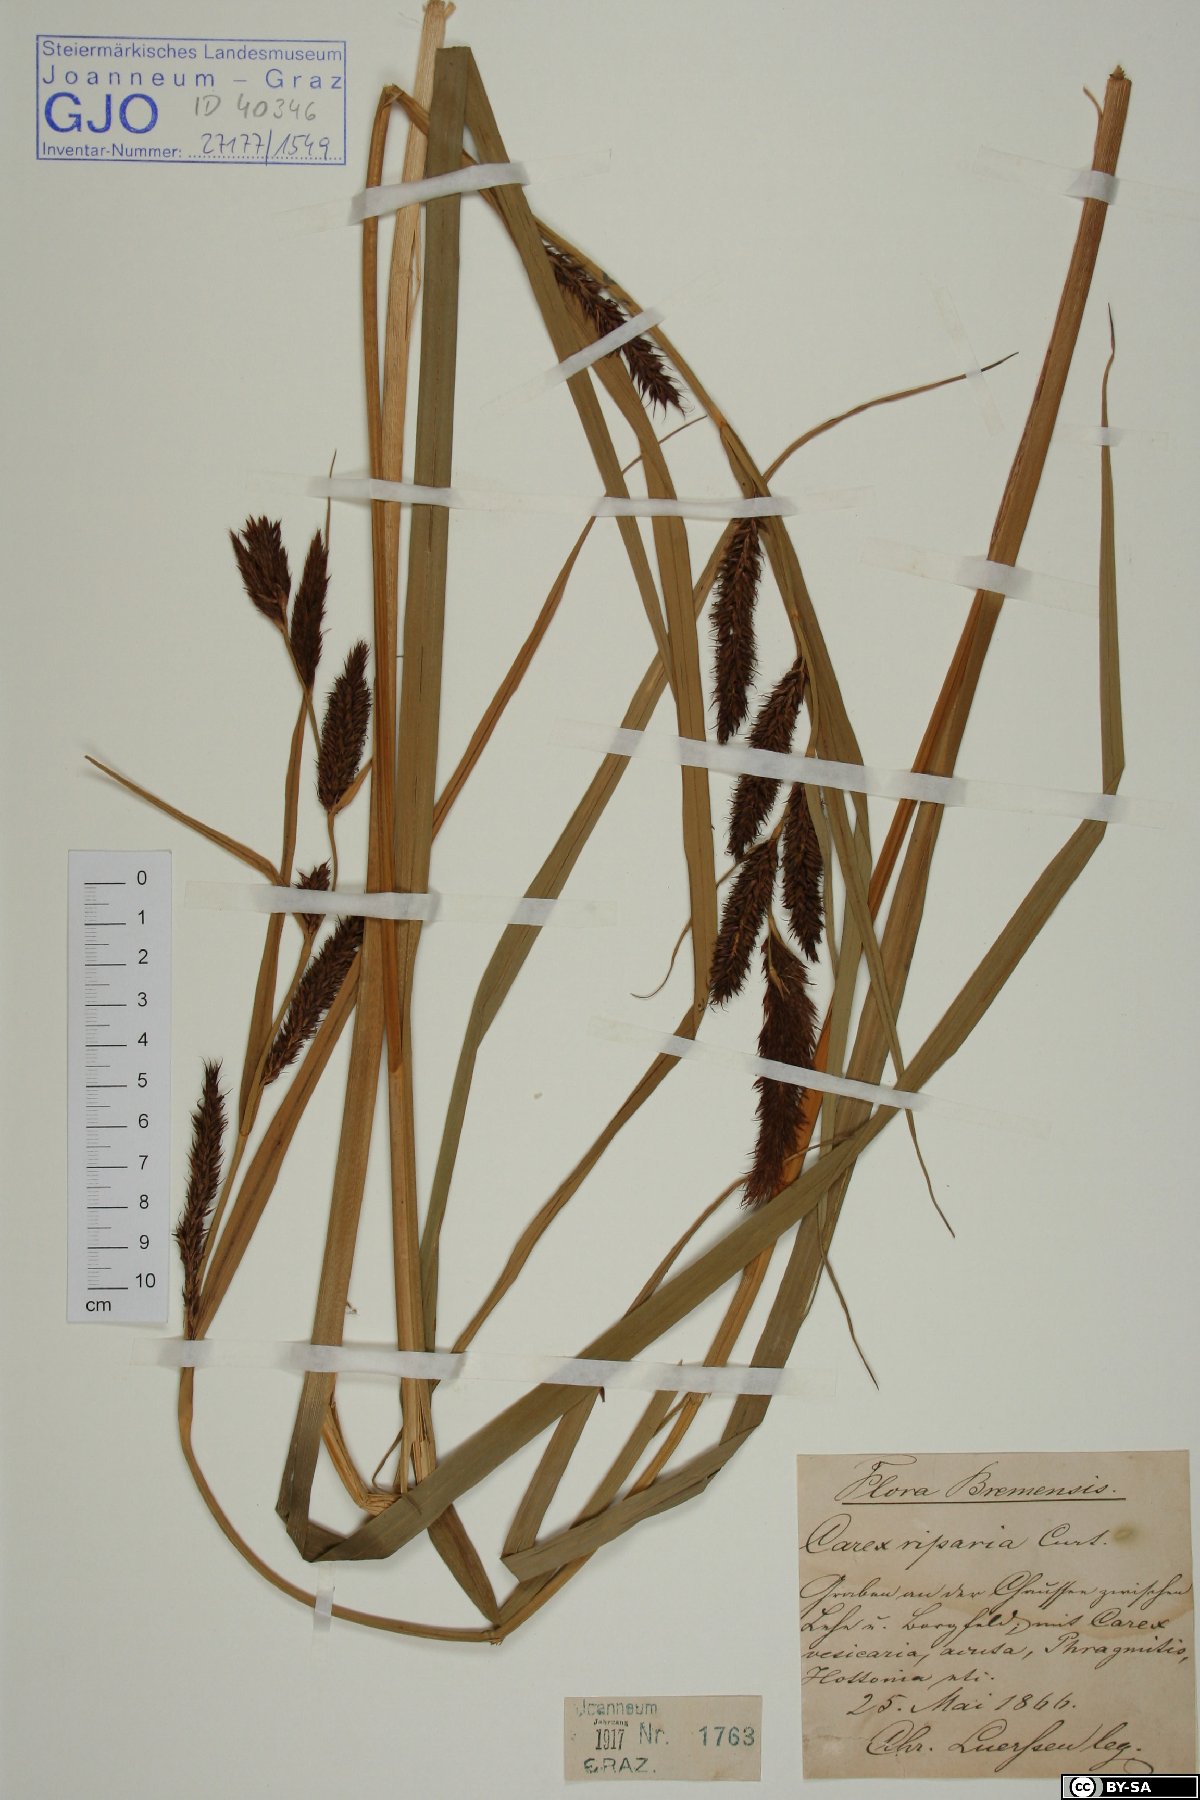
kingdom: Plantae
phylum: Tracheophyta
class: Liliopsida
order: Poales
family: Cyperaceae
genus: Carex
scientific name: Carex riparia
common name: Greater pond-sedge
